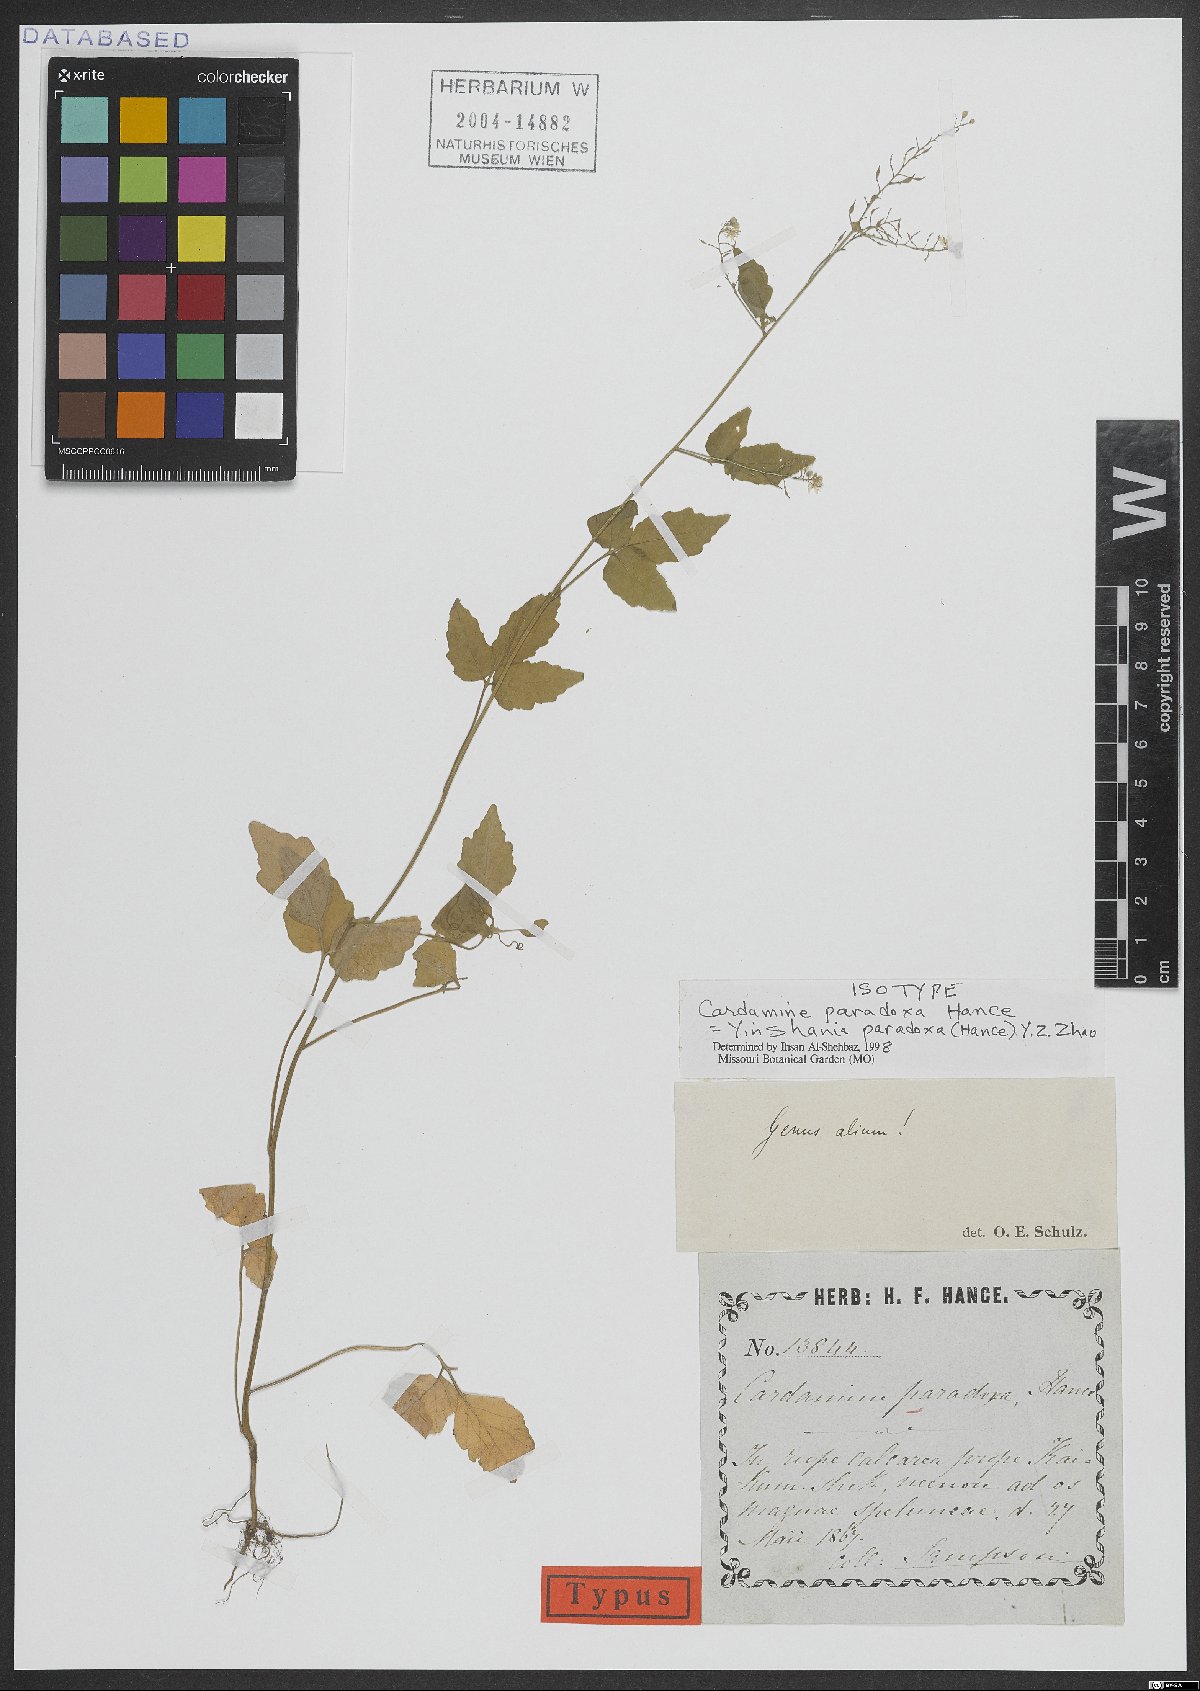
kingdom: Plantae
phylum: Tracheophyta
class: Magnoliopsida
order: Brassicales
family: Brassicaceae
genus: Hilliella
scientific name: Hilliella paradoxa
